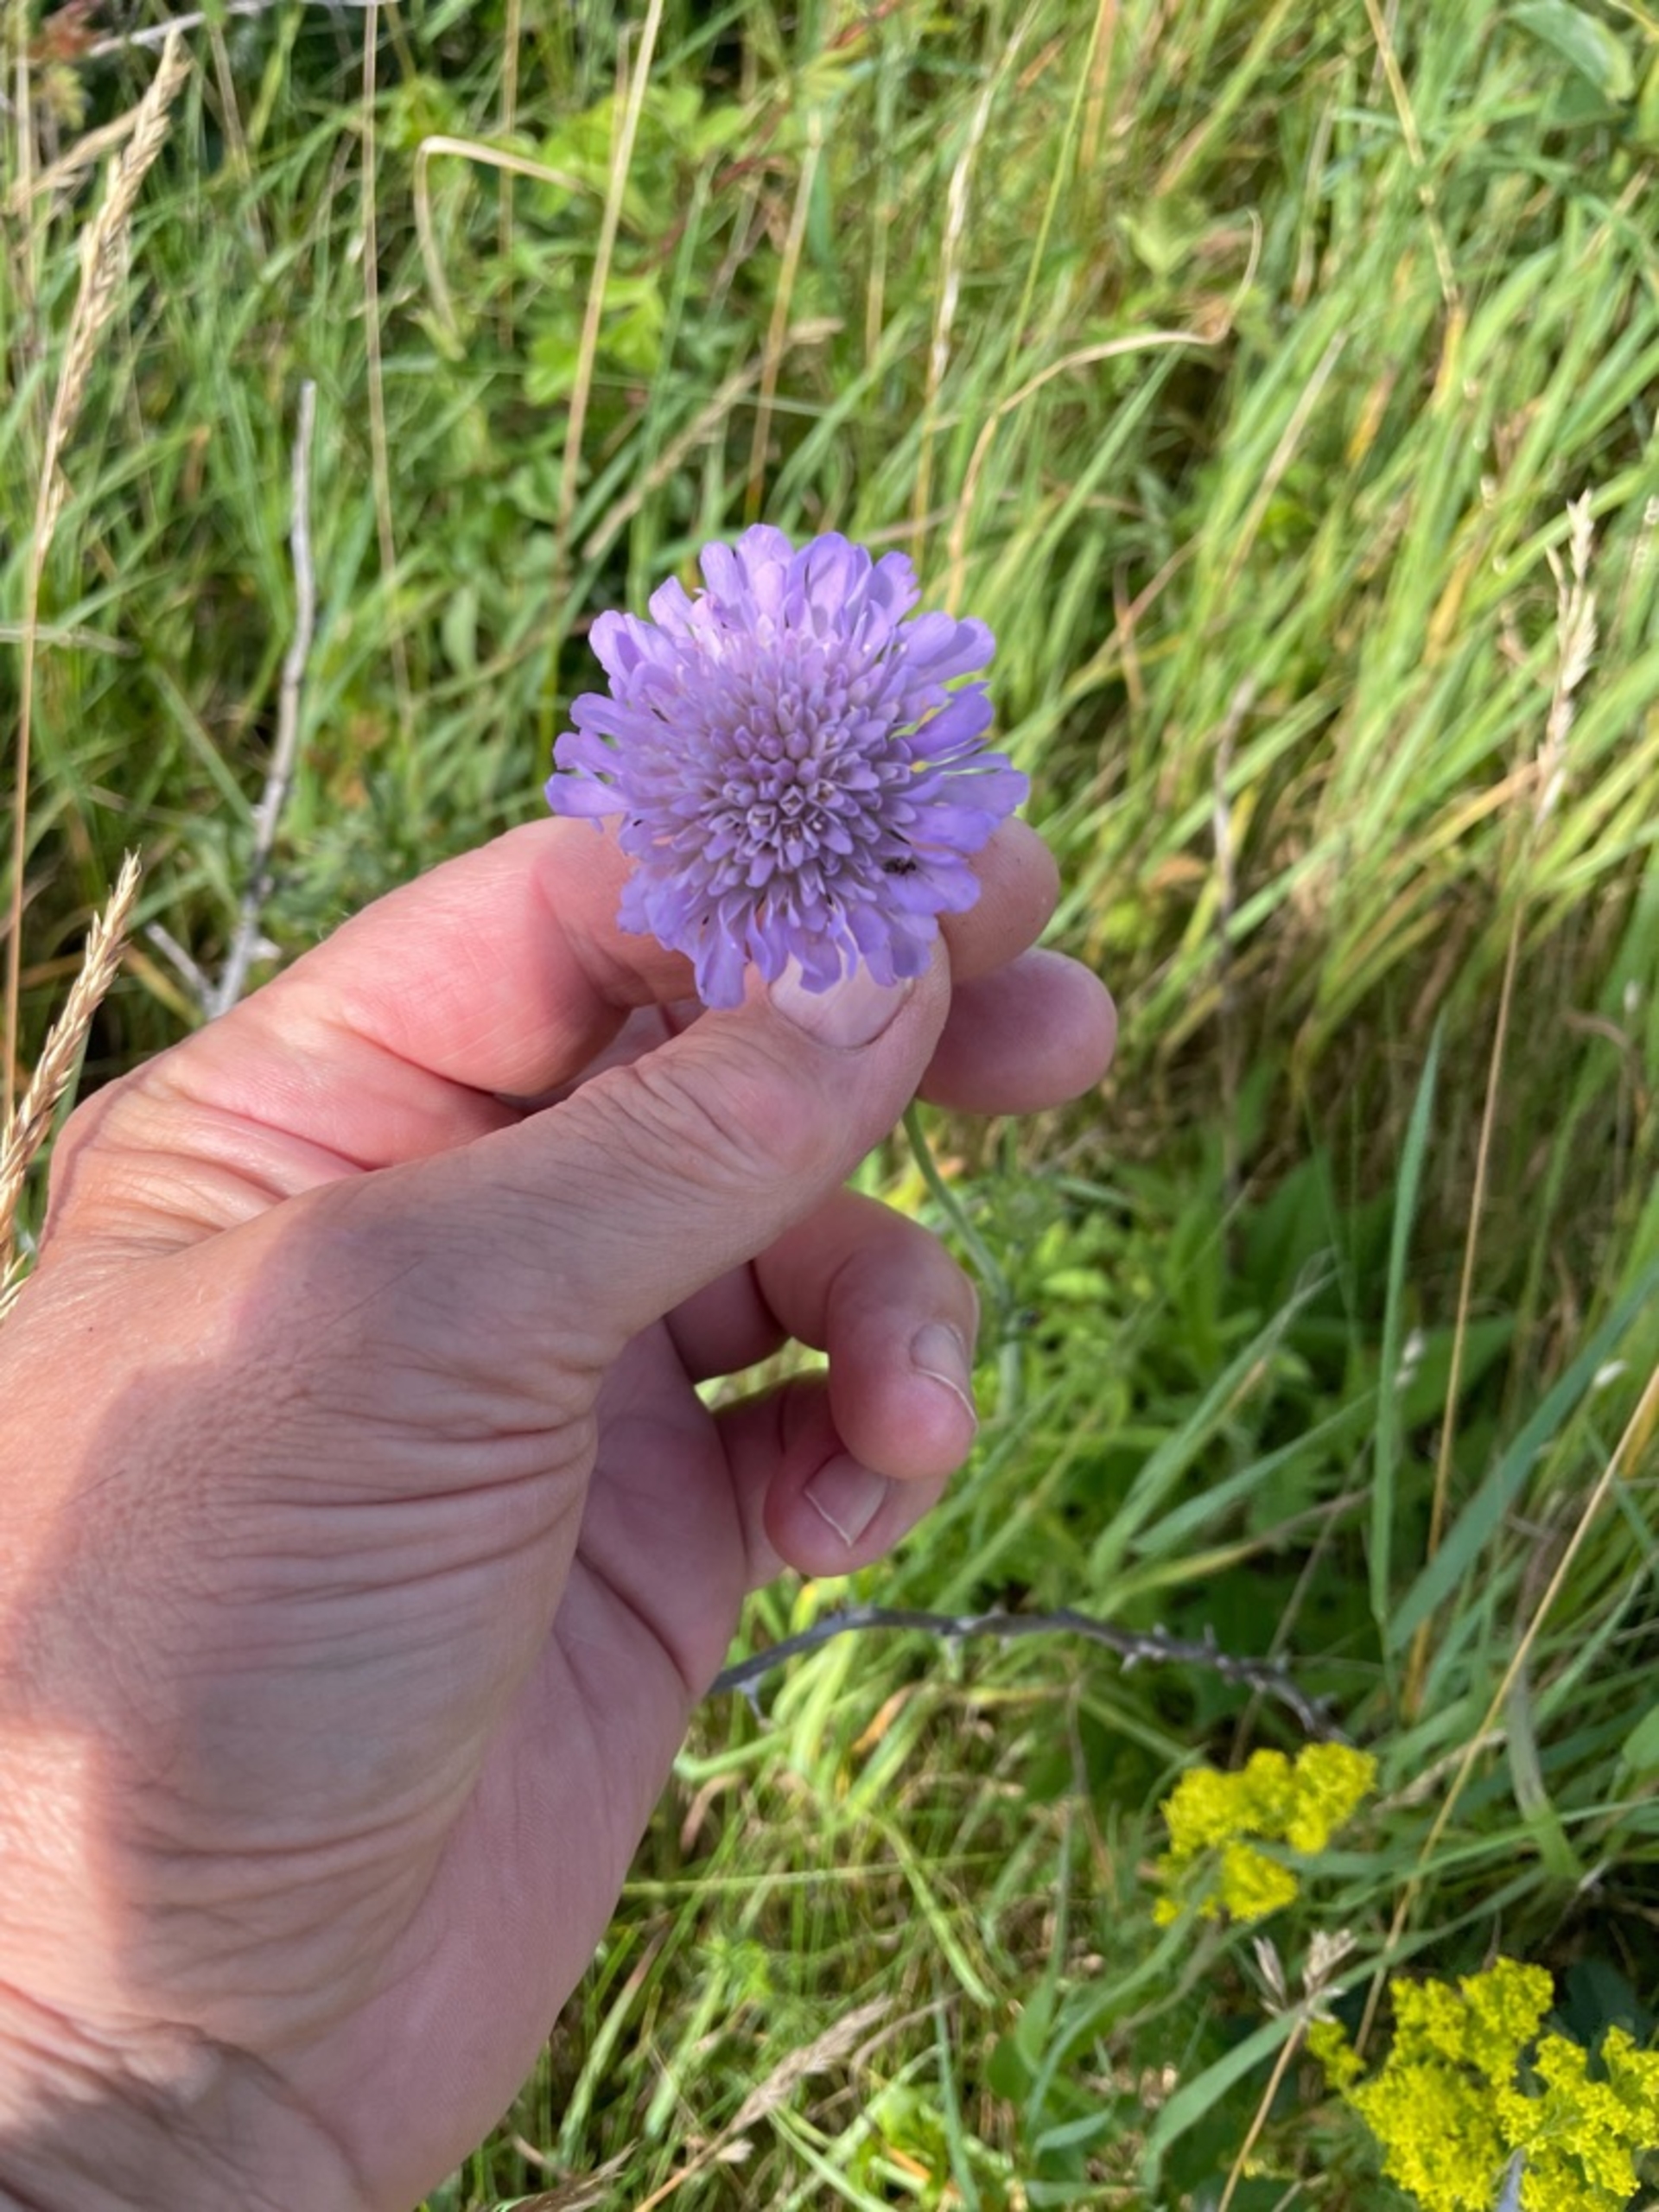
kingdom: Plantae
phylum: Tracheophyta
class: Magnoliopsida
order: Dipsacales
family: Caprifoliaceae
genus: Knautia
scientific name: Knautia arvensis
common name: Blåhat
